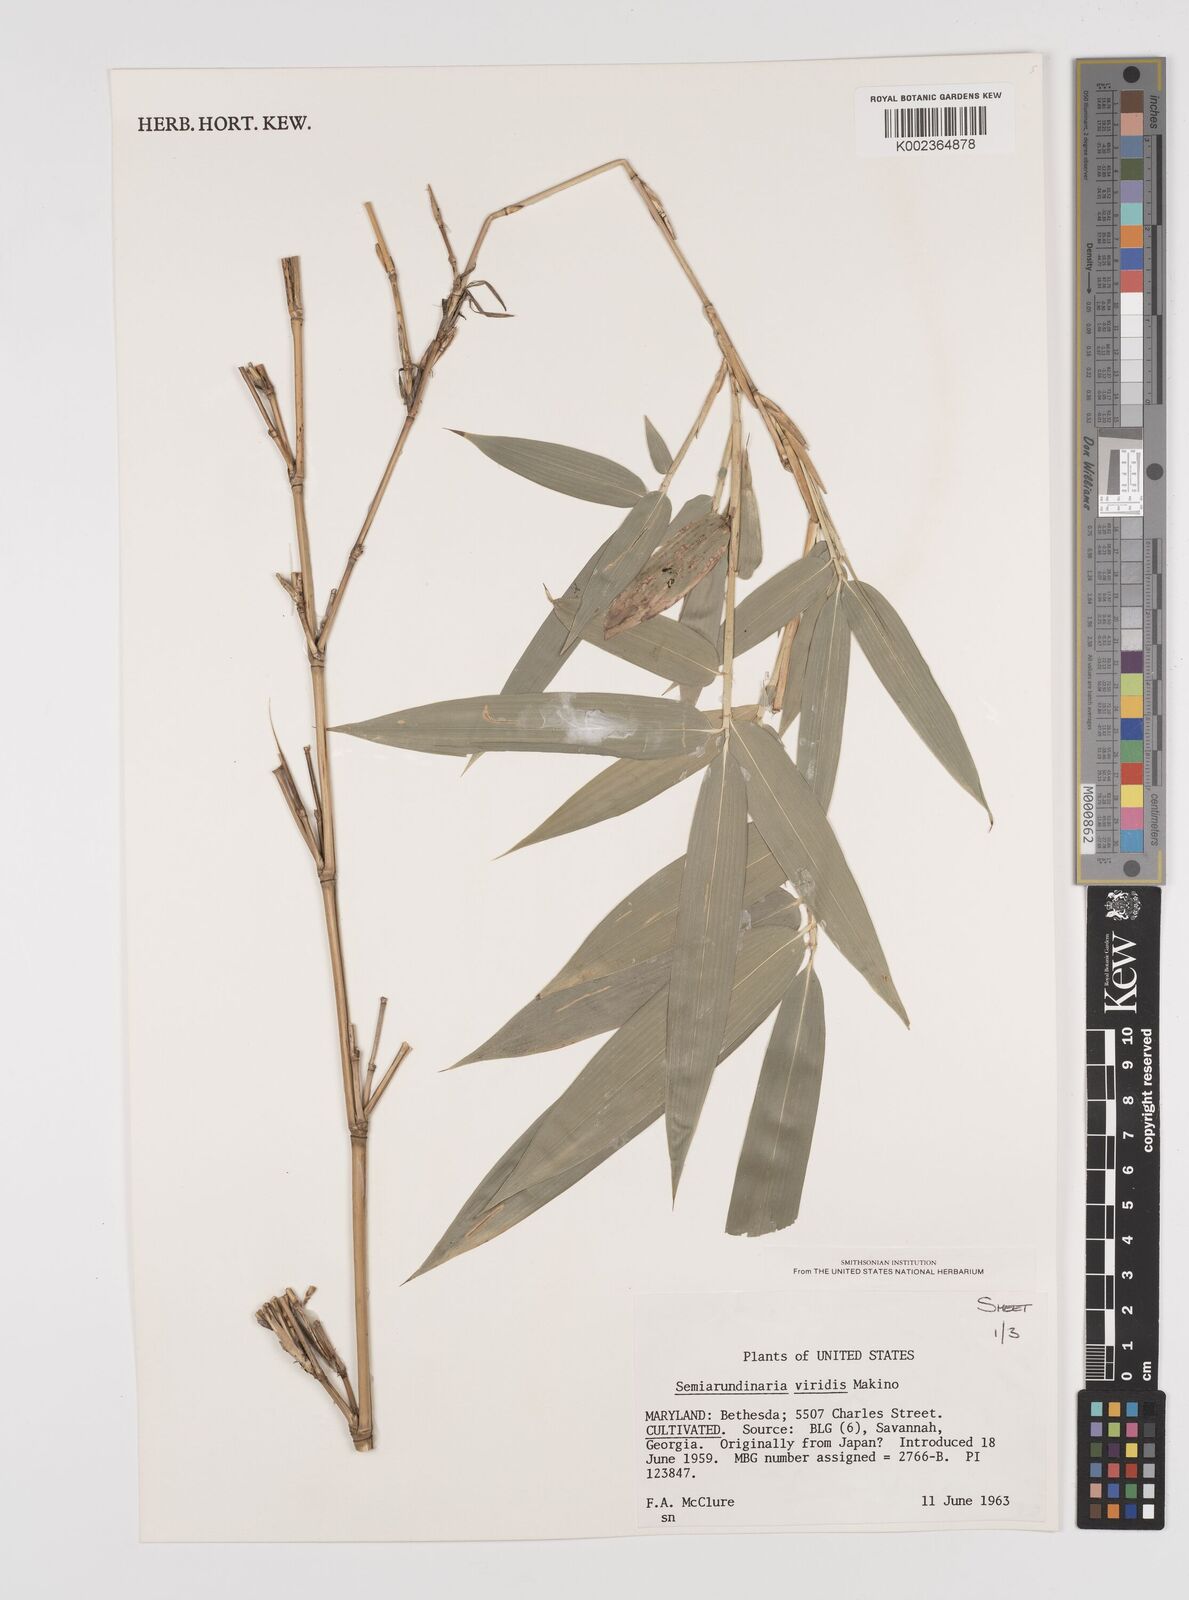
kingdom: Plantae
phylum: Tracheophyta
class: Liliopsida
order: Poales
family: Poaceae
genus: Semiarundinaria
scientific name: Semiarundinaria fastuosa
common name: Narihira bamboo
